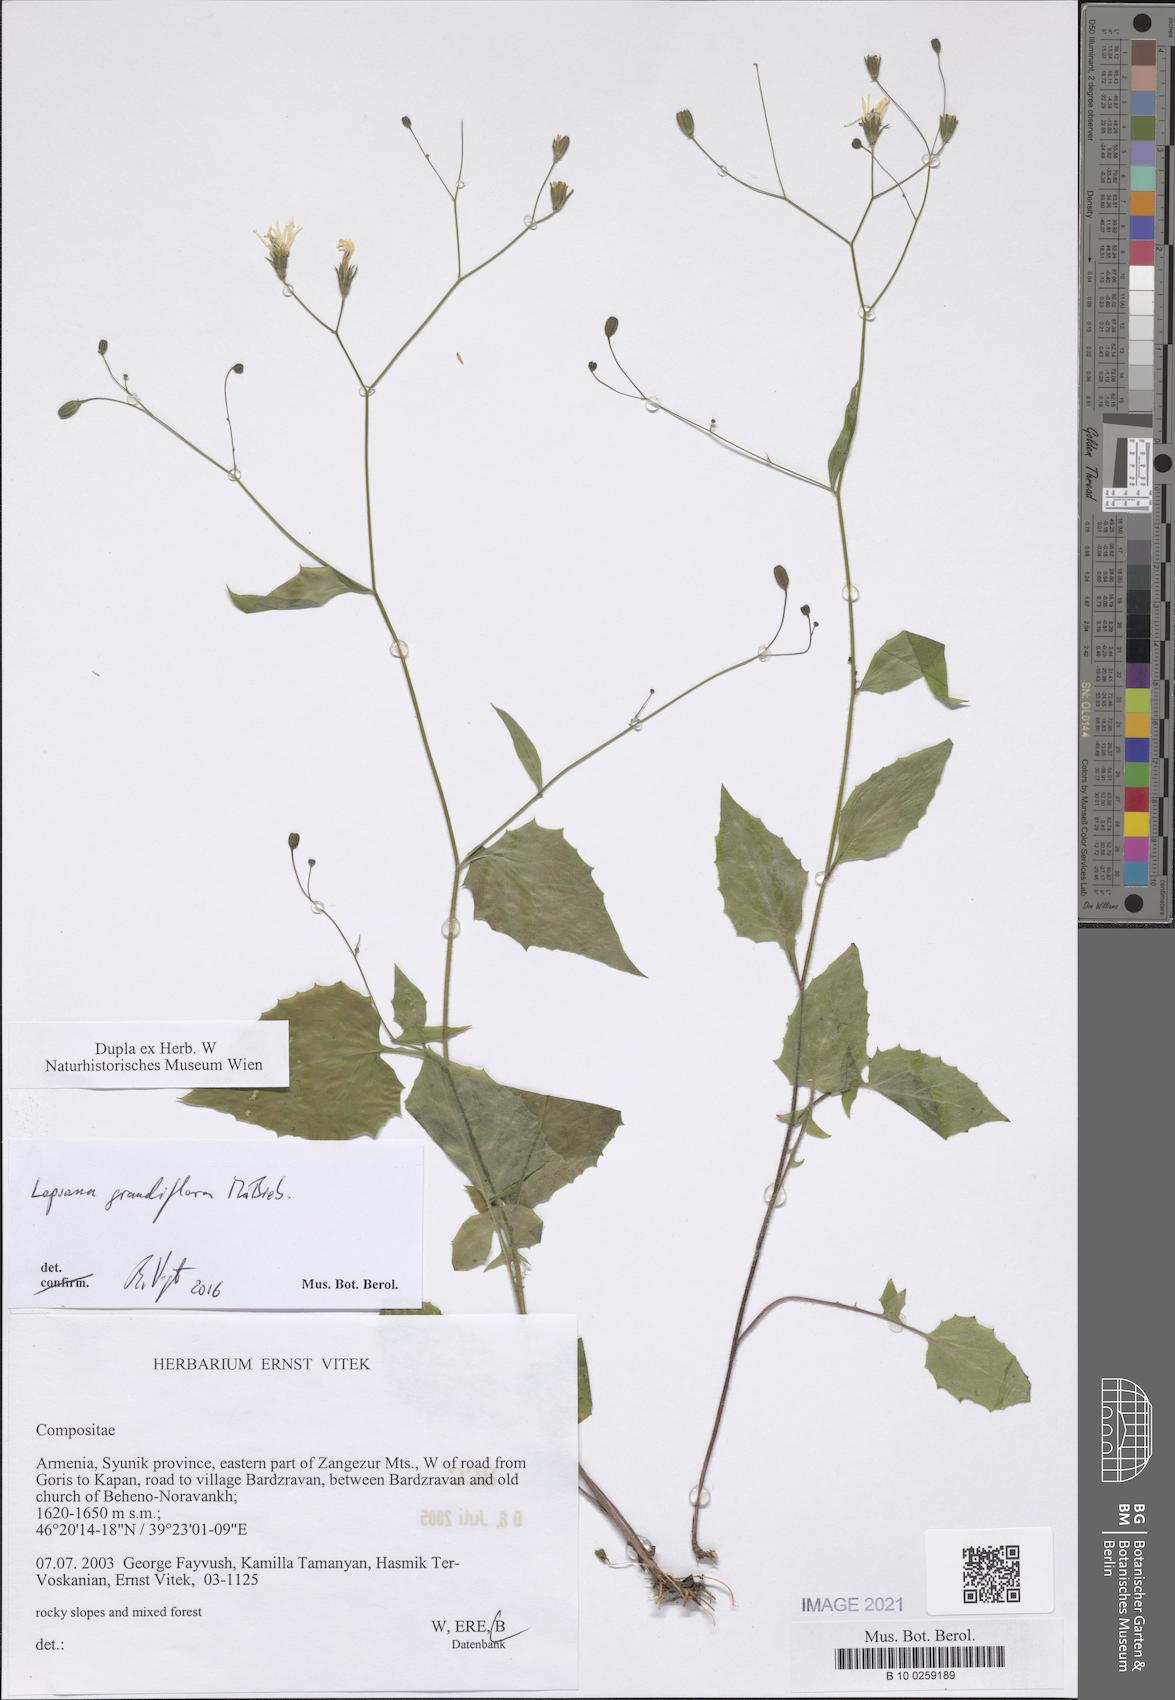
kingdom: Plantae
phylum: Tracheophyta
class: Magnoliopsida
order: Asterales
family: Asteraceae
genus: Lapsana
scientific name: Lapsana communis
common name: Nipplewort
